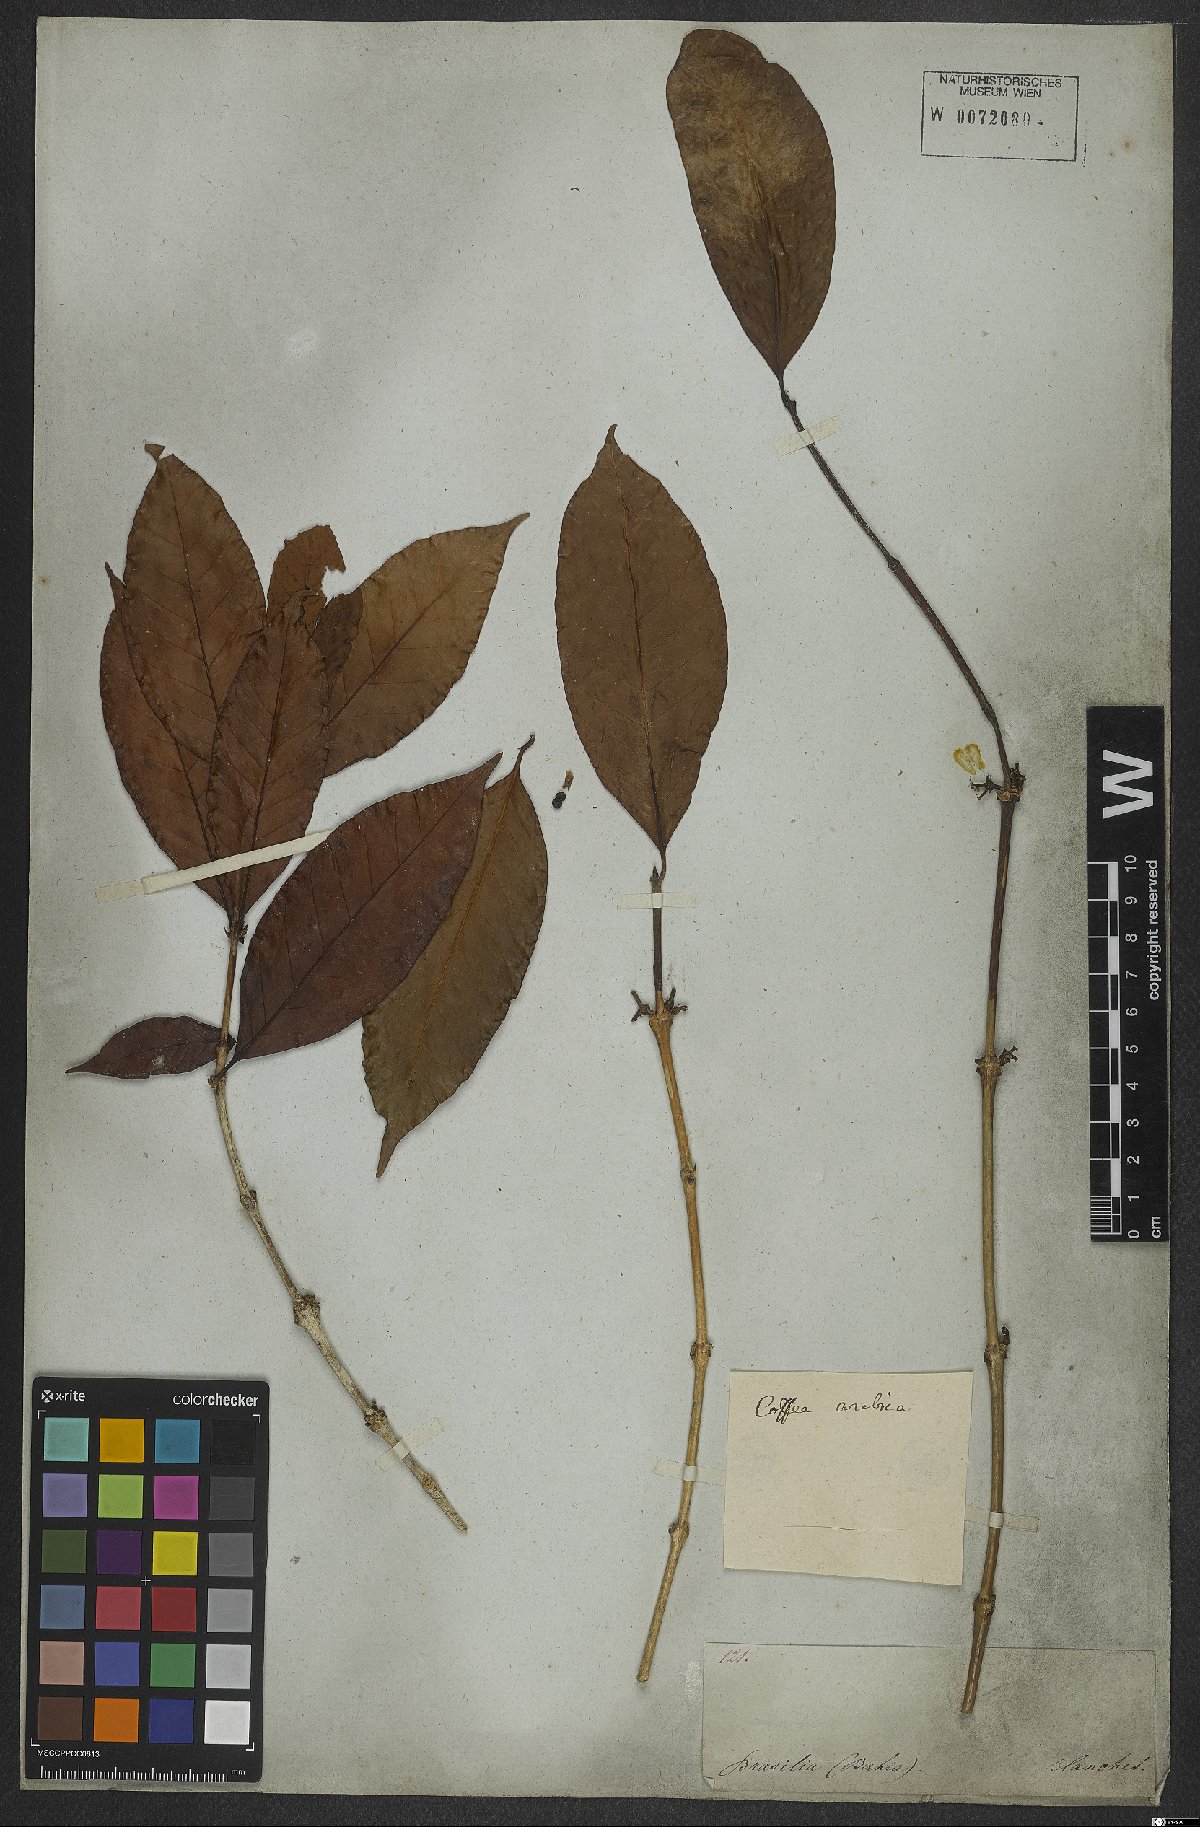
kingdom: Plantae
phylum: Tracheophyta
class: Magnoliopsida
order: Gentianales
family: Rubiaceae
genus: Coffea
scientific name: Coffea arabica
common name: Coffee
